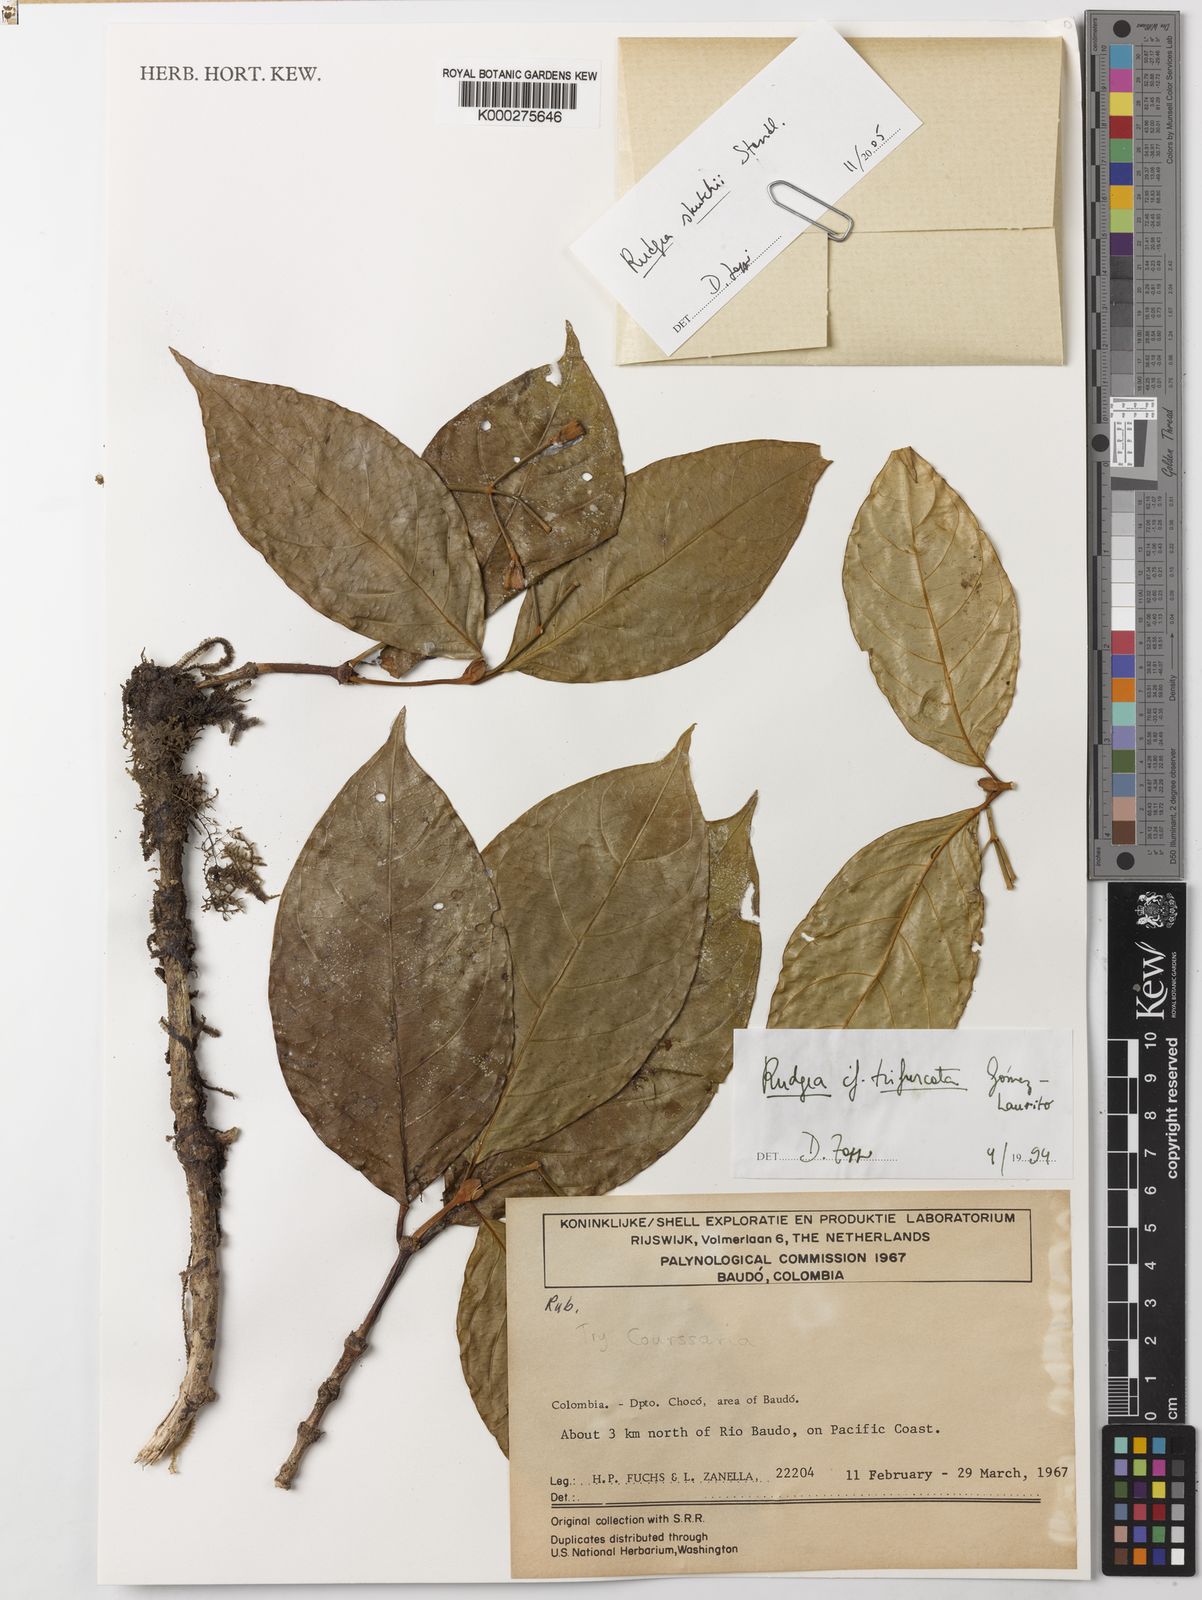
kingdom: Plantae
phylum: Tracheophyta
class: Magnoliopsida
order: Gentianales
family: Rubiaceae
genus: Rudgea
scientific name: Rudgea skutchii
